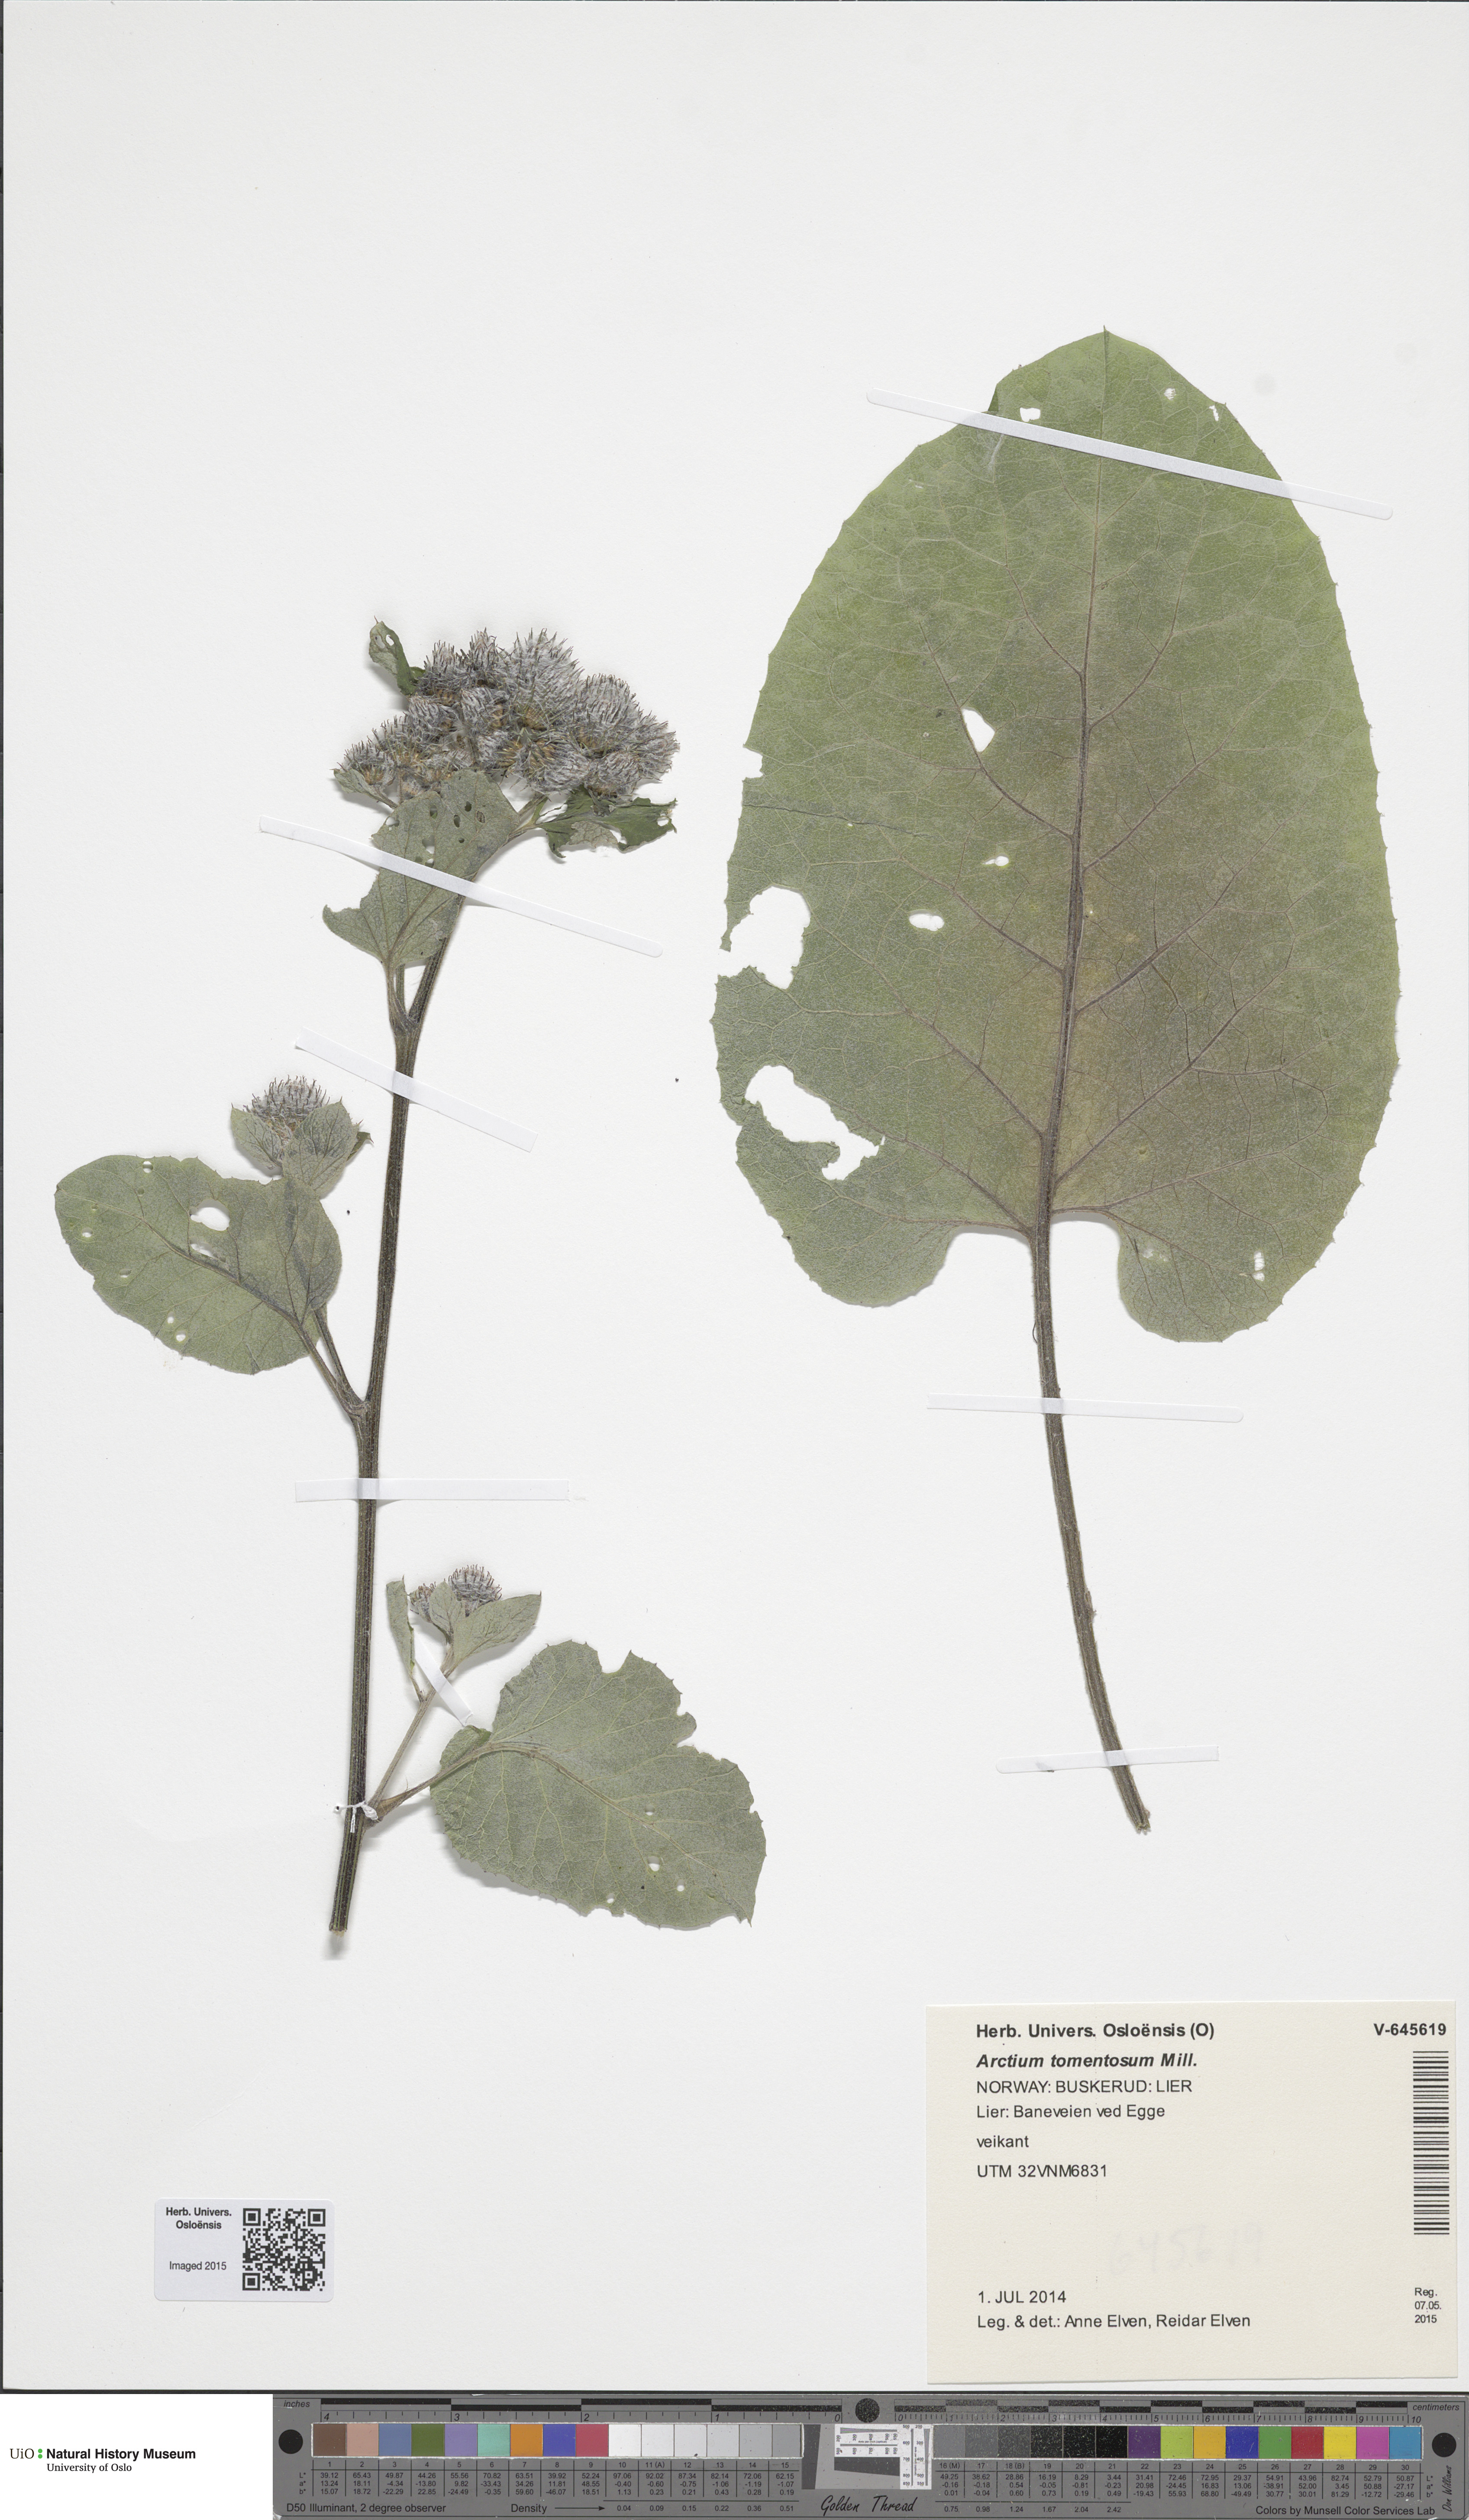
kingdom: Plantae
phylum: Tracheophyta
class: Magnoliopsida
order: Asterales
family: Asteraceae
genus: Arctium
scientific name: Arctium tomentosum
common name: Woolly burdock
